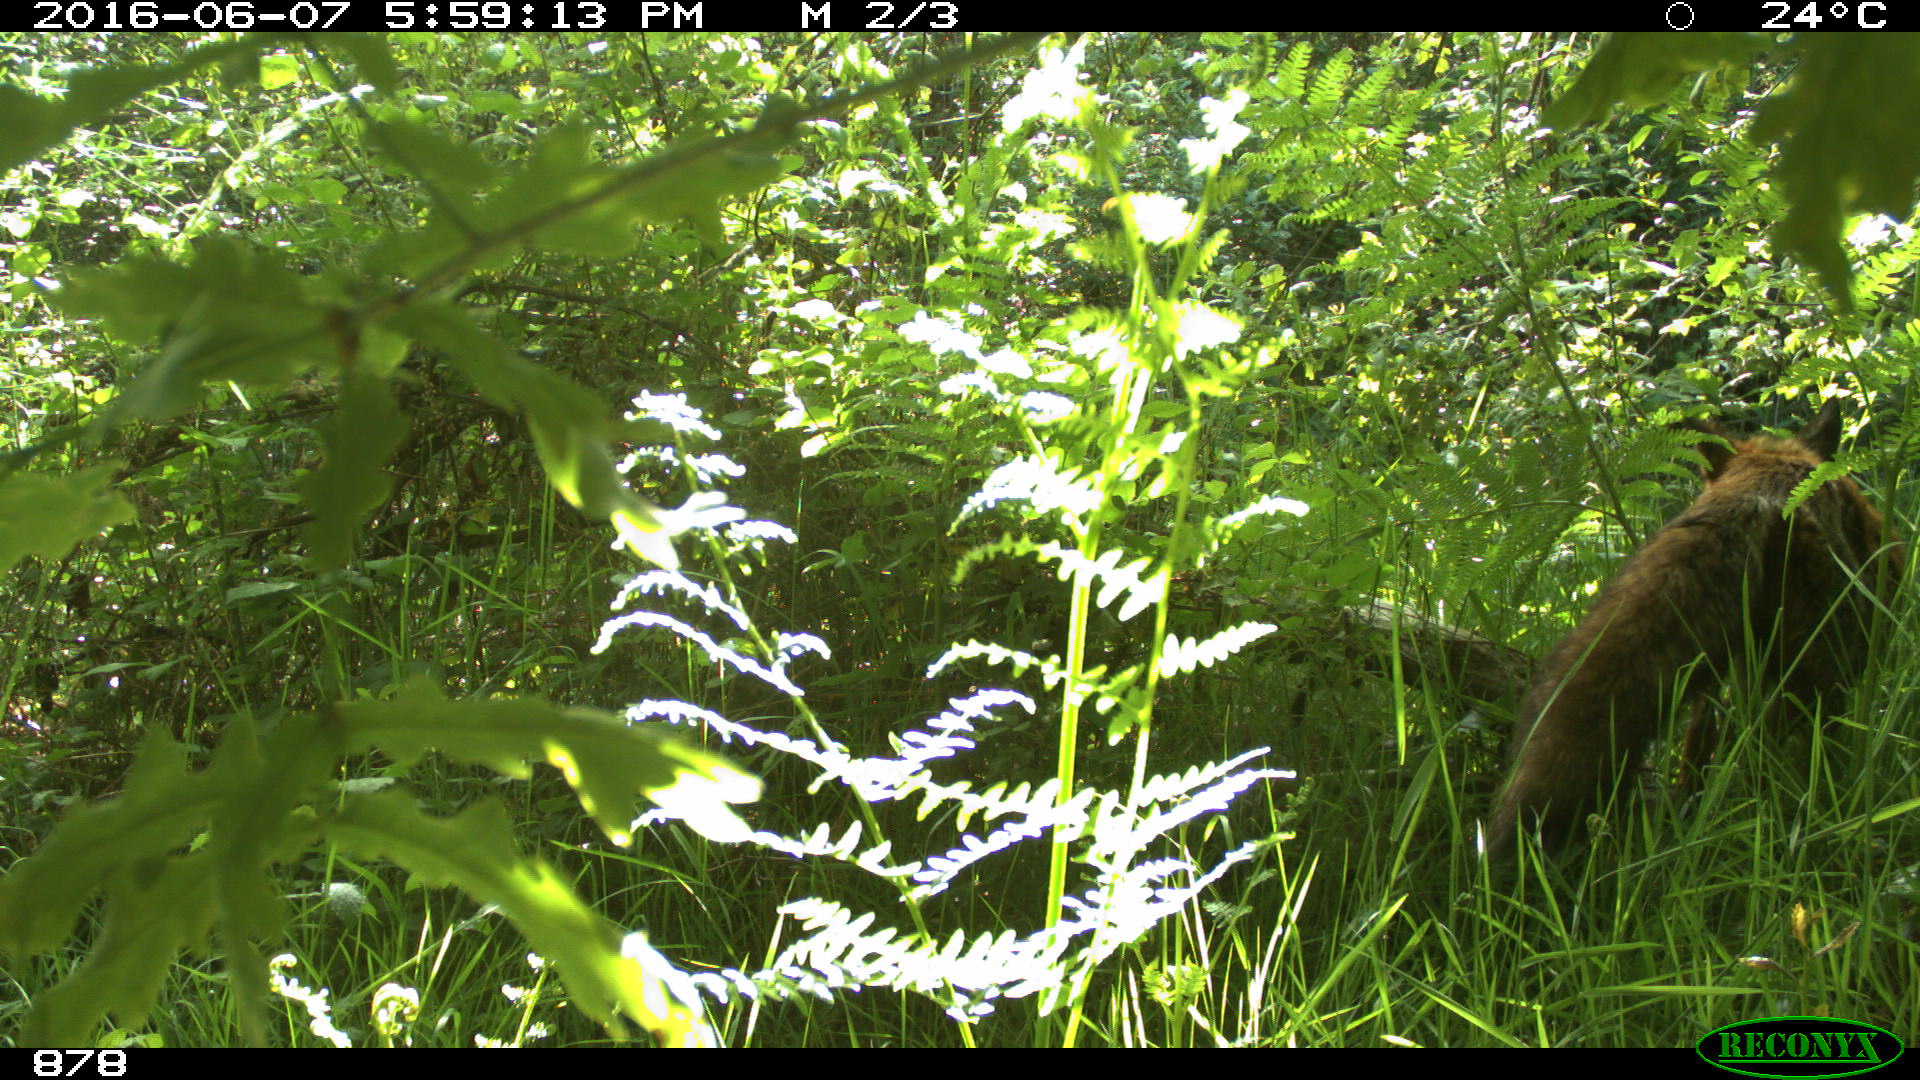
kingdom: Animalia
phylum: Chordata
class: Mammalia
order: Carnivora
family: Canidae
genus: Vulpes
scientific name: Vulpes vulpes
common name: Red fox
